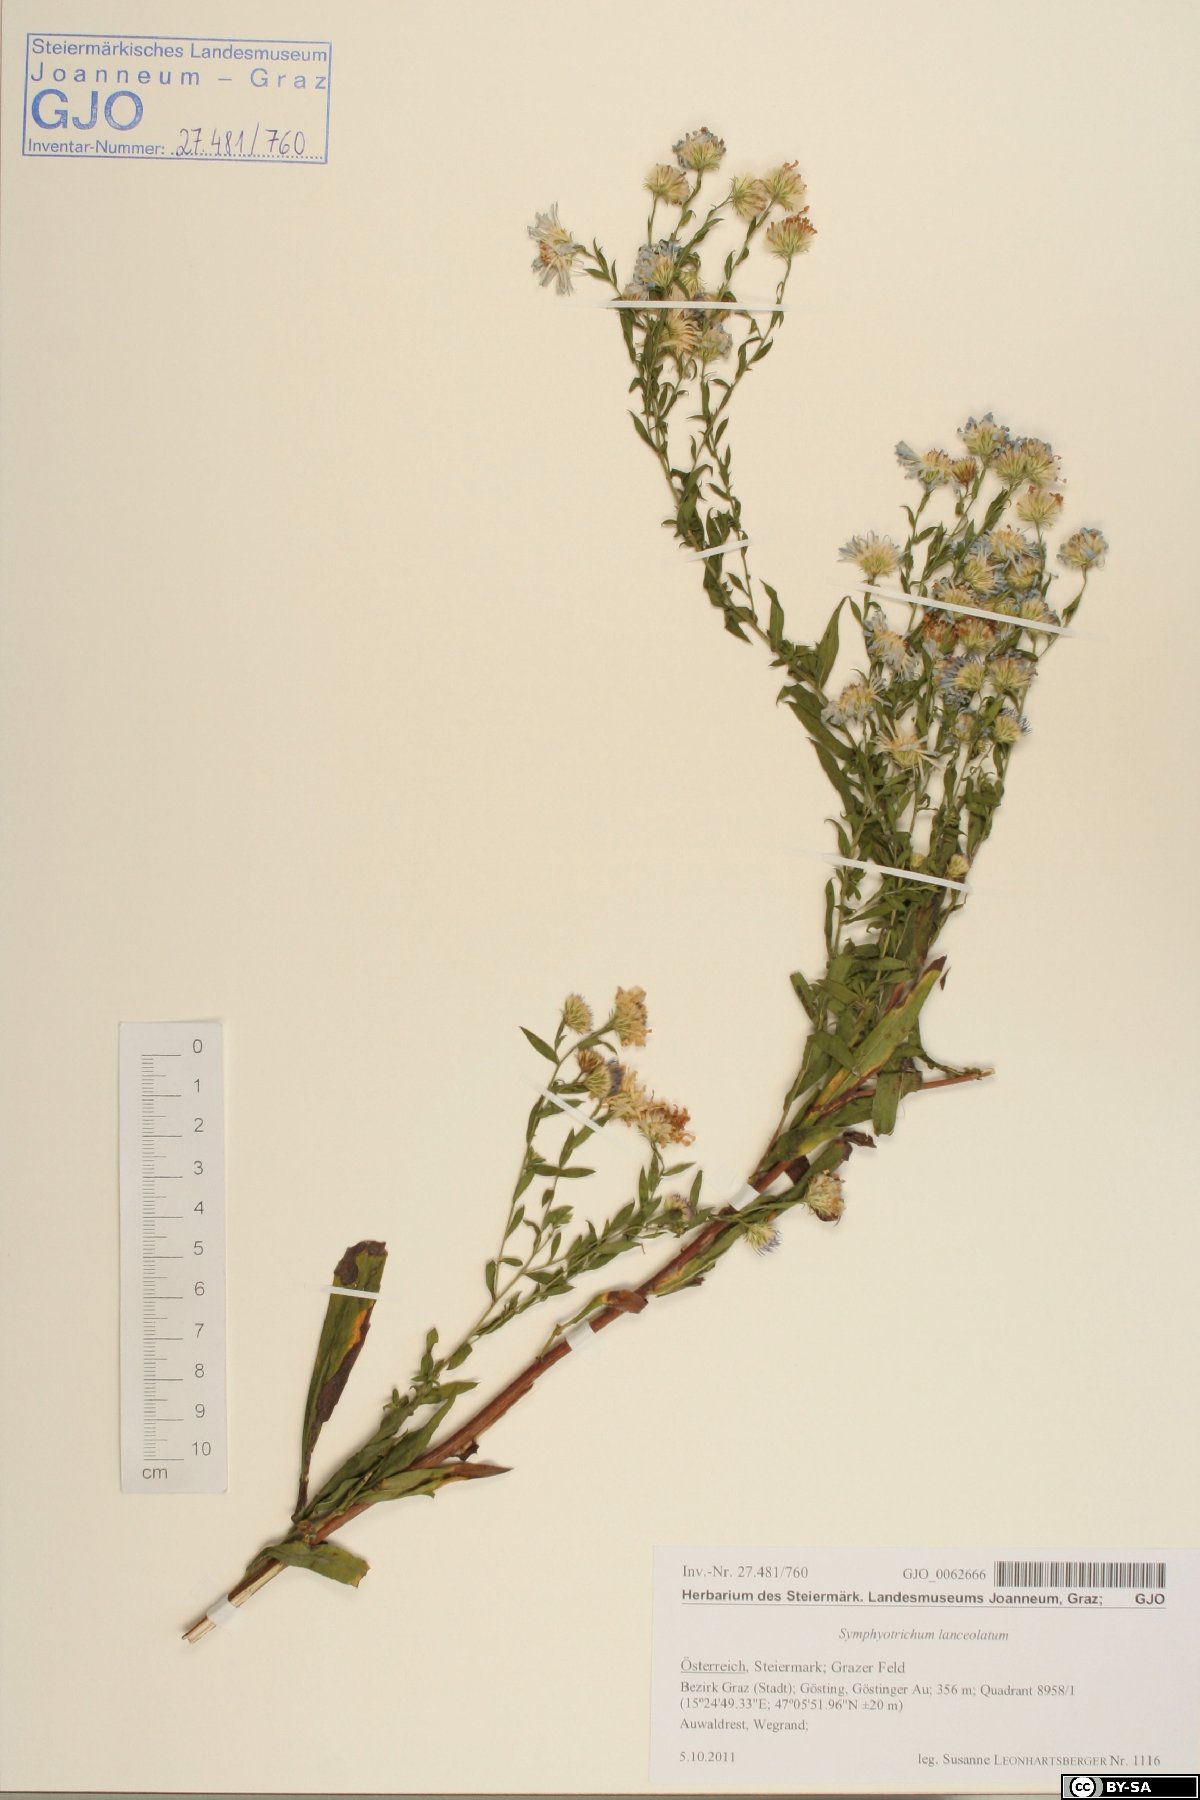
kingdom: Plantae
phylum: Tracheophyta
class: Magnoliopsida
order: Asterales
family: Asteraceae
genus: Symphyotrichum
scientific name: Symphyotrichum lanceolatum
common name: Panicled aster
